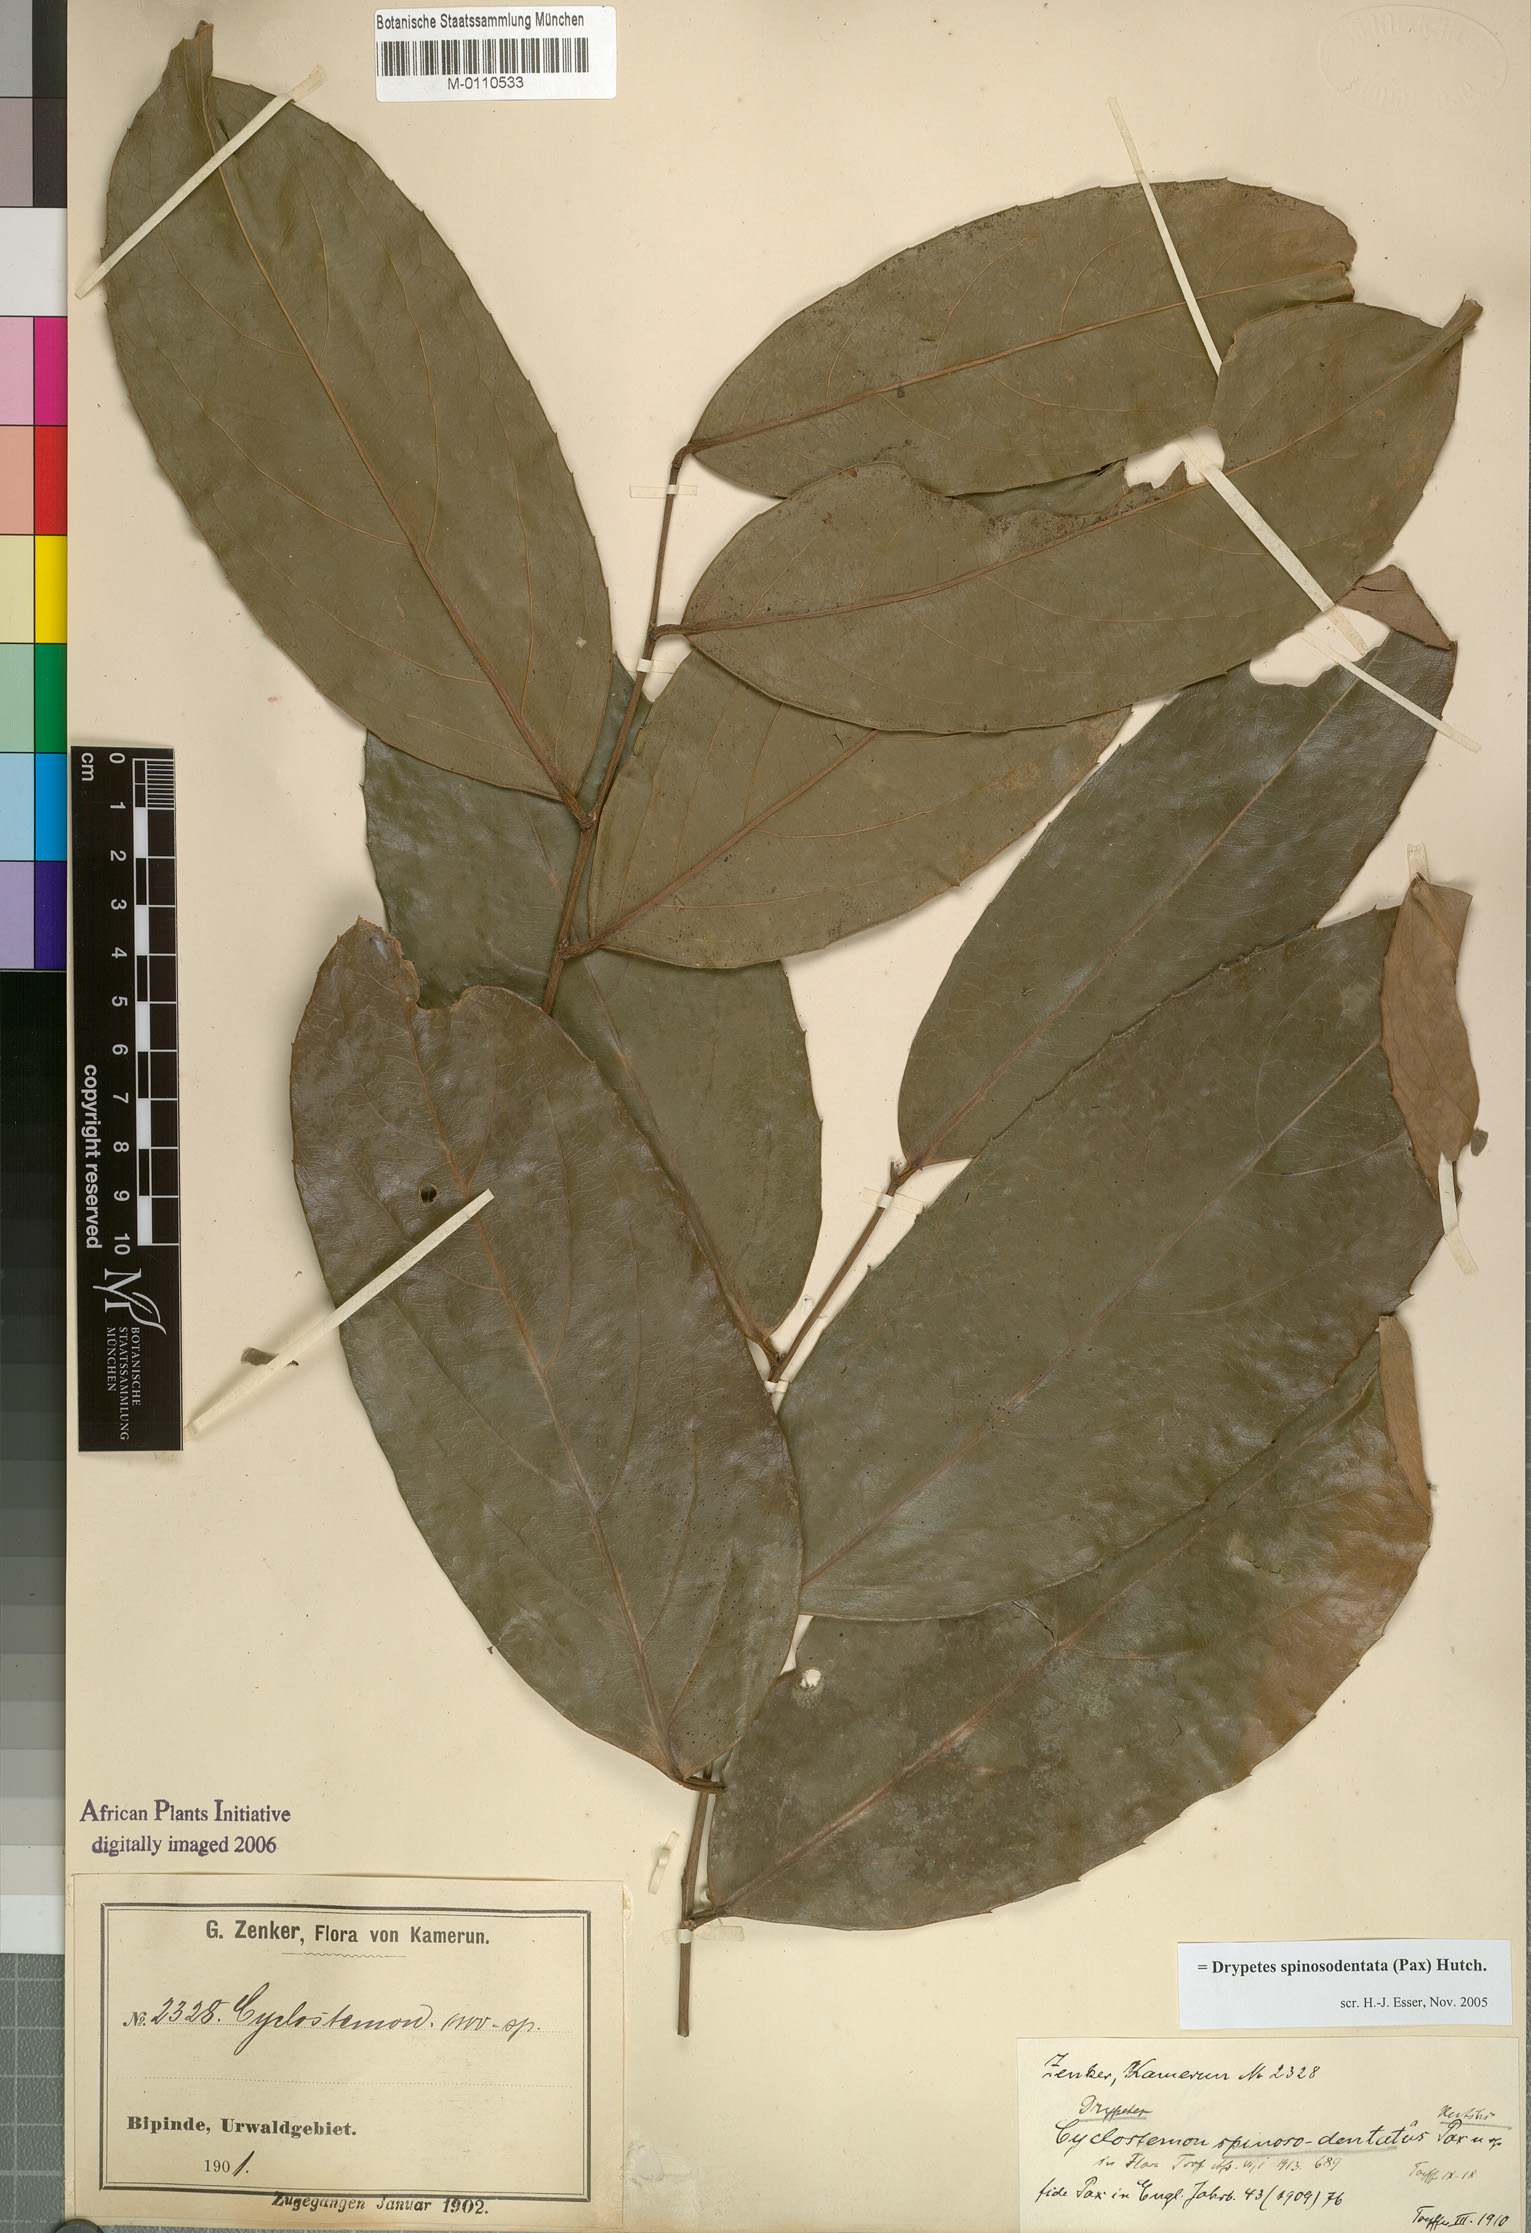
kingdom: Plantae
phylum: Tracheophyta
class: Magnoliopsida
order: Malpighiales
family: Putranjivaceae
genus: Drypetes
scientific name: Drypetes spinosodentata
